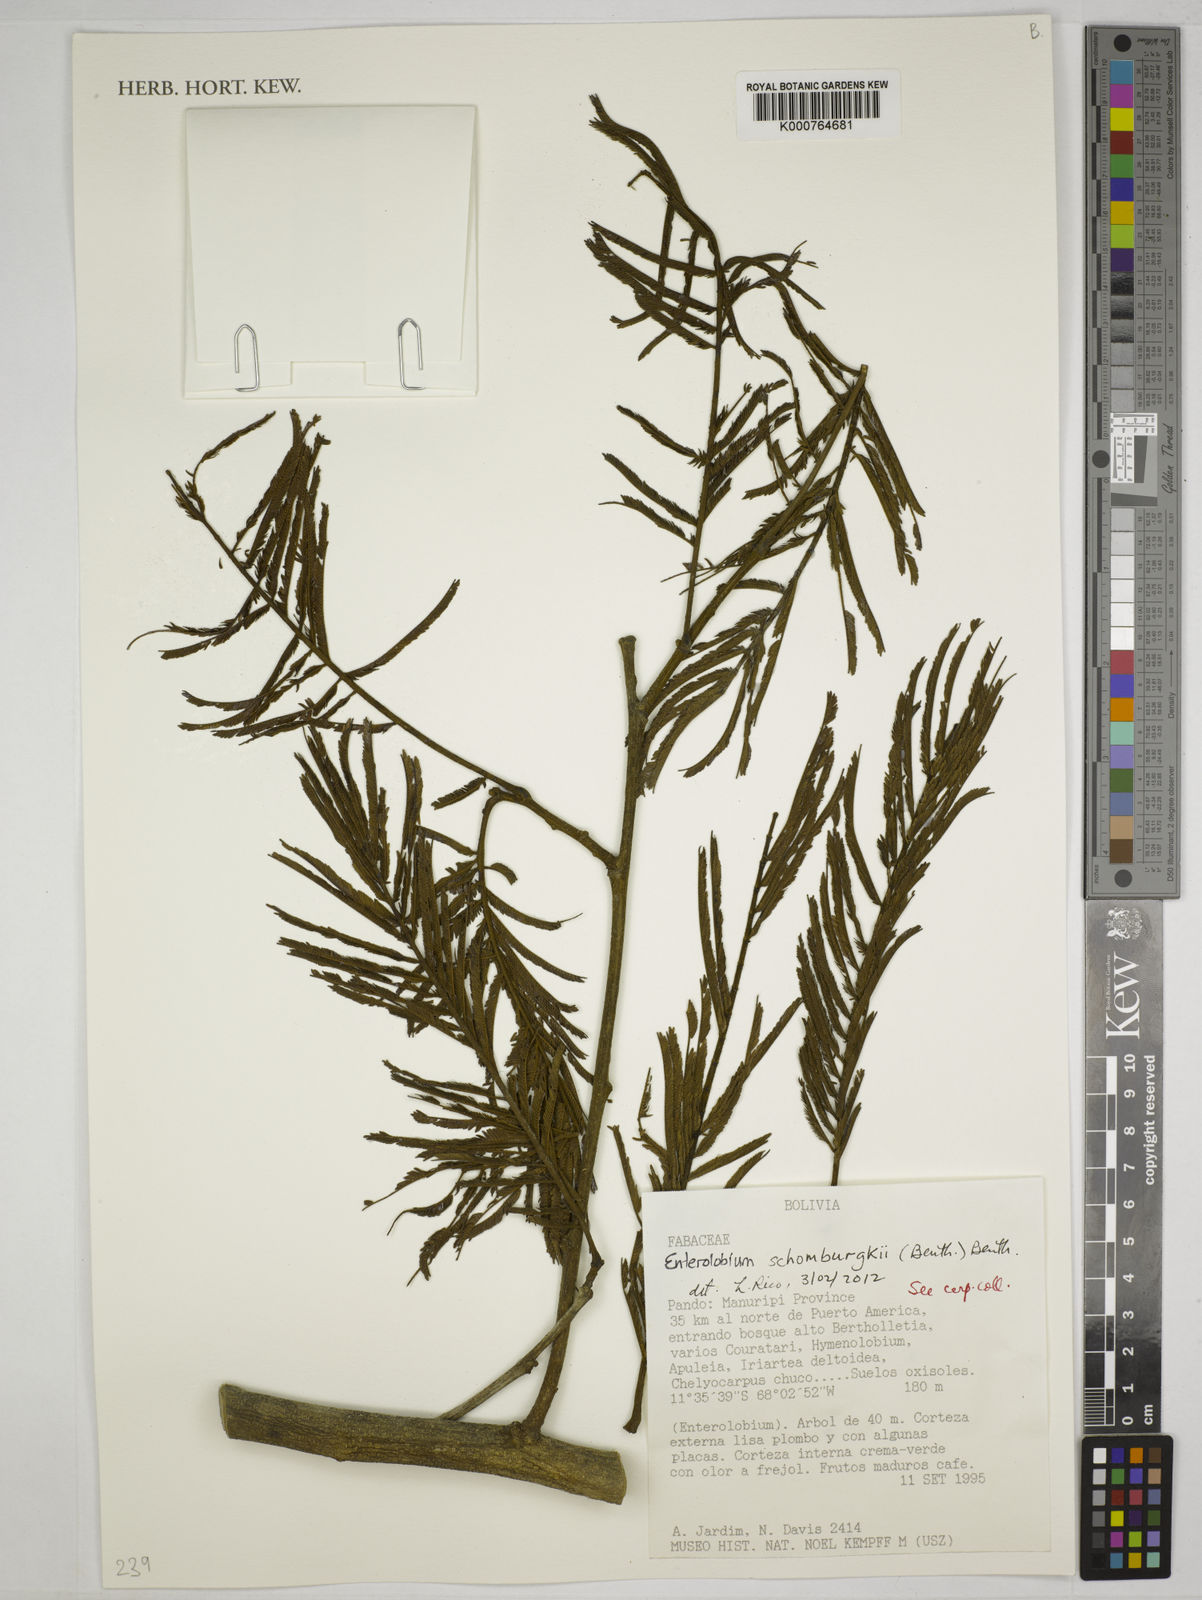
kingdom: Plantae
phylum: Tracheophyta
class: Magnoliopsida
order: Fabales
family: Fabaceae
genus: Enterolobium
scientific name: Enterolobium schomburgkii
